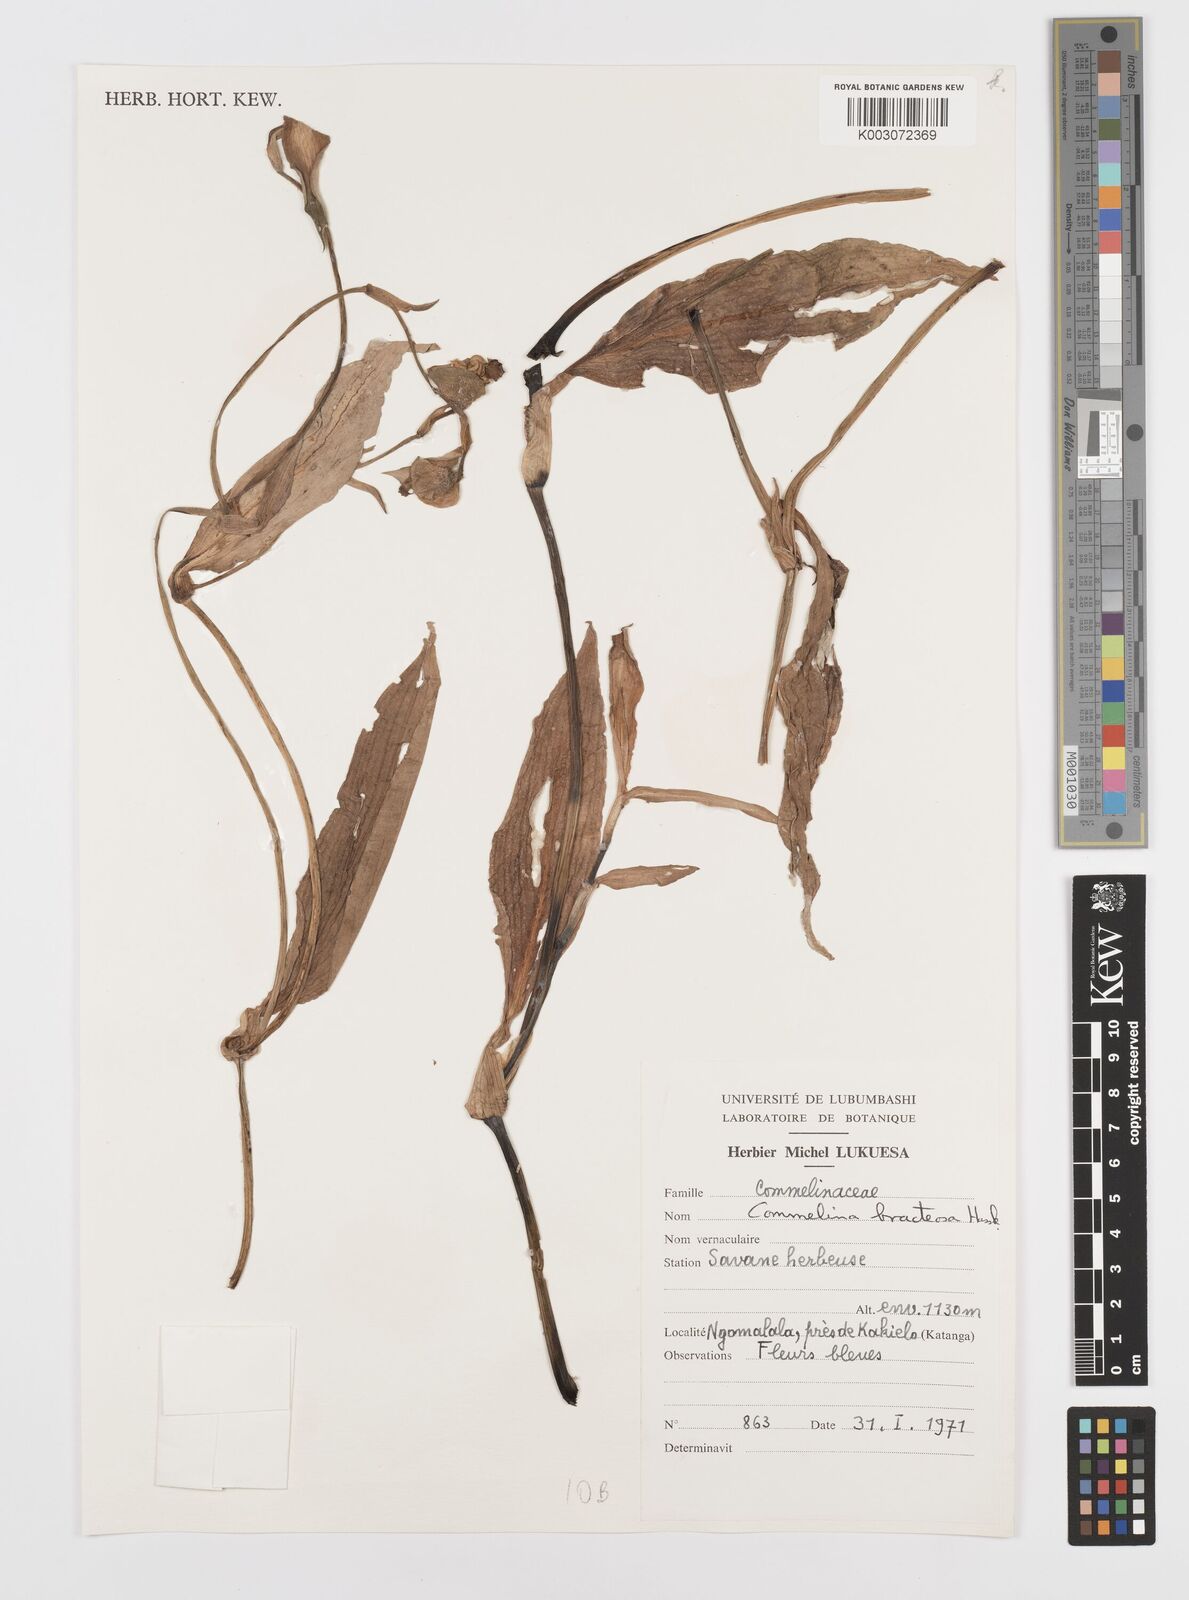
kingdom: Plantae
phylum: Tracheophyta
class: Liliopsida
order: Commelinales
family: Commelinaceae
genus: Commelina
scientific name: Commelina bracteosa
